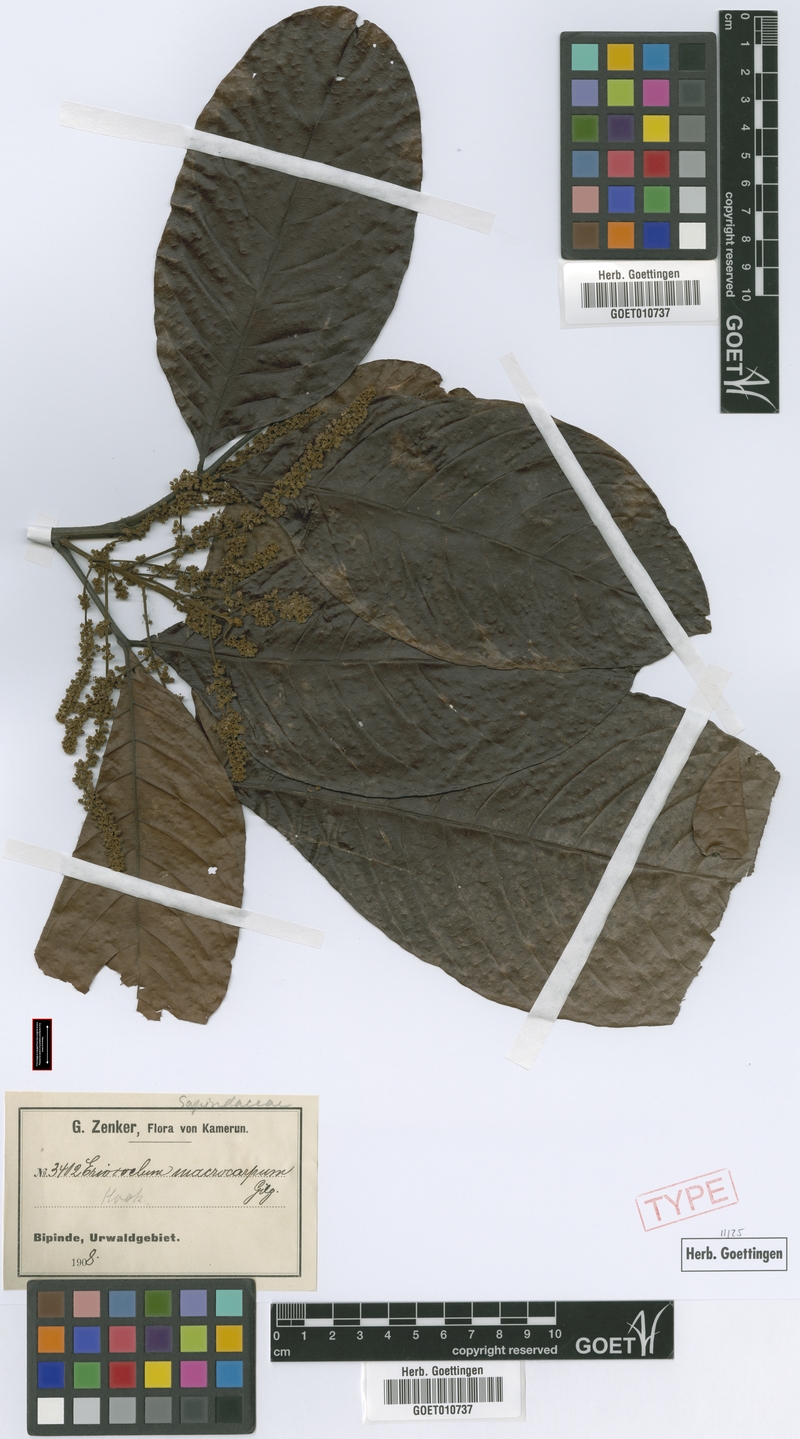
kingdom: Plantae
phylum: Tracheophyta
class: Magnoliopsida
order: Sapindales
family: Sapindaceae
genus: Eriocoelum
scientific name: Eriocoelum macrocarpum
